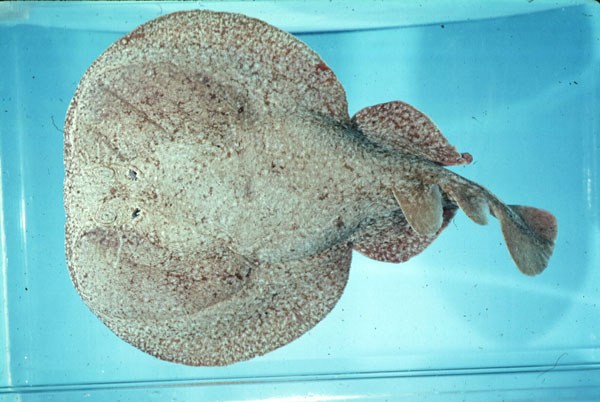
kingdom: Animalia
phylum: Chordata
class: Elasmobranchii
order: Torpediniformes
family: Torpedinidae
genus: Torpedo
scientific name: Torpedo
